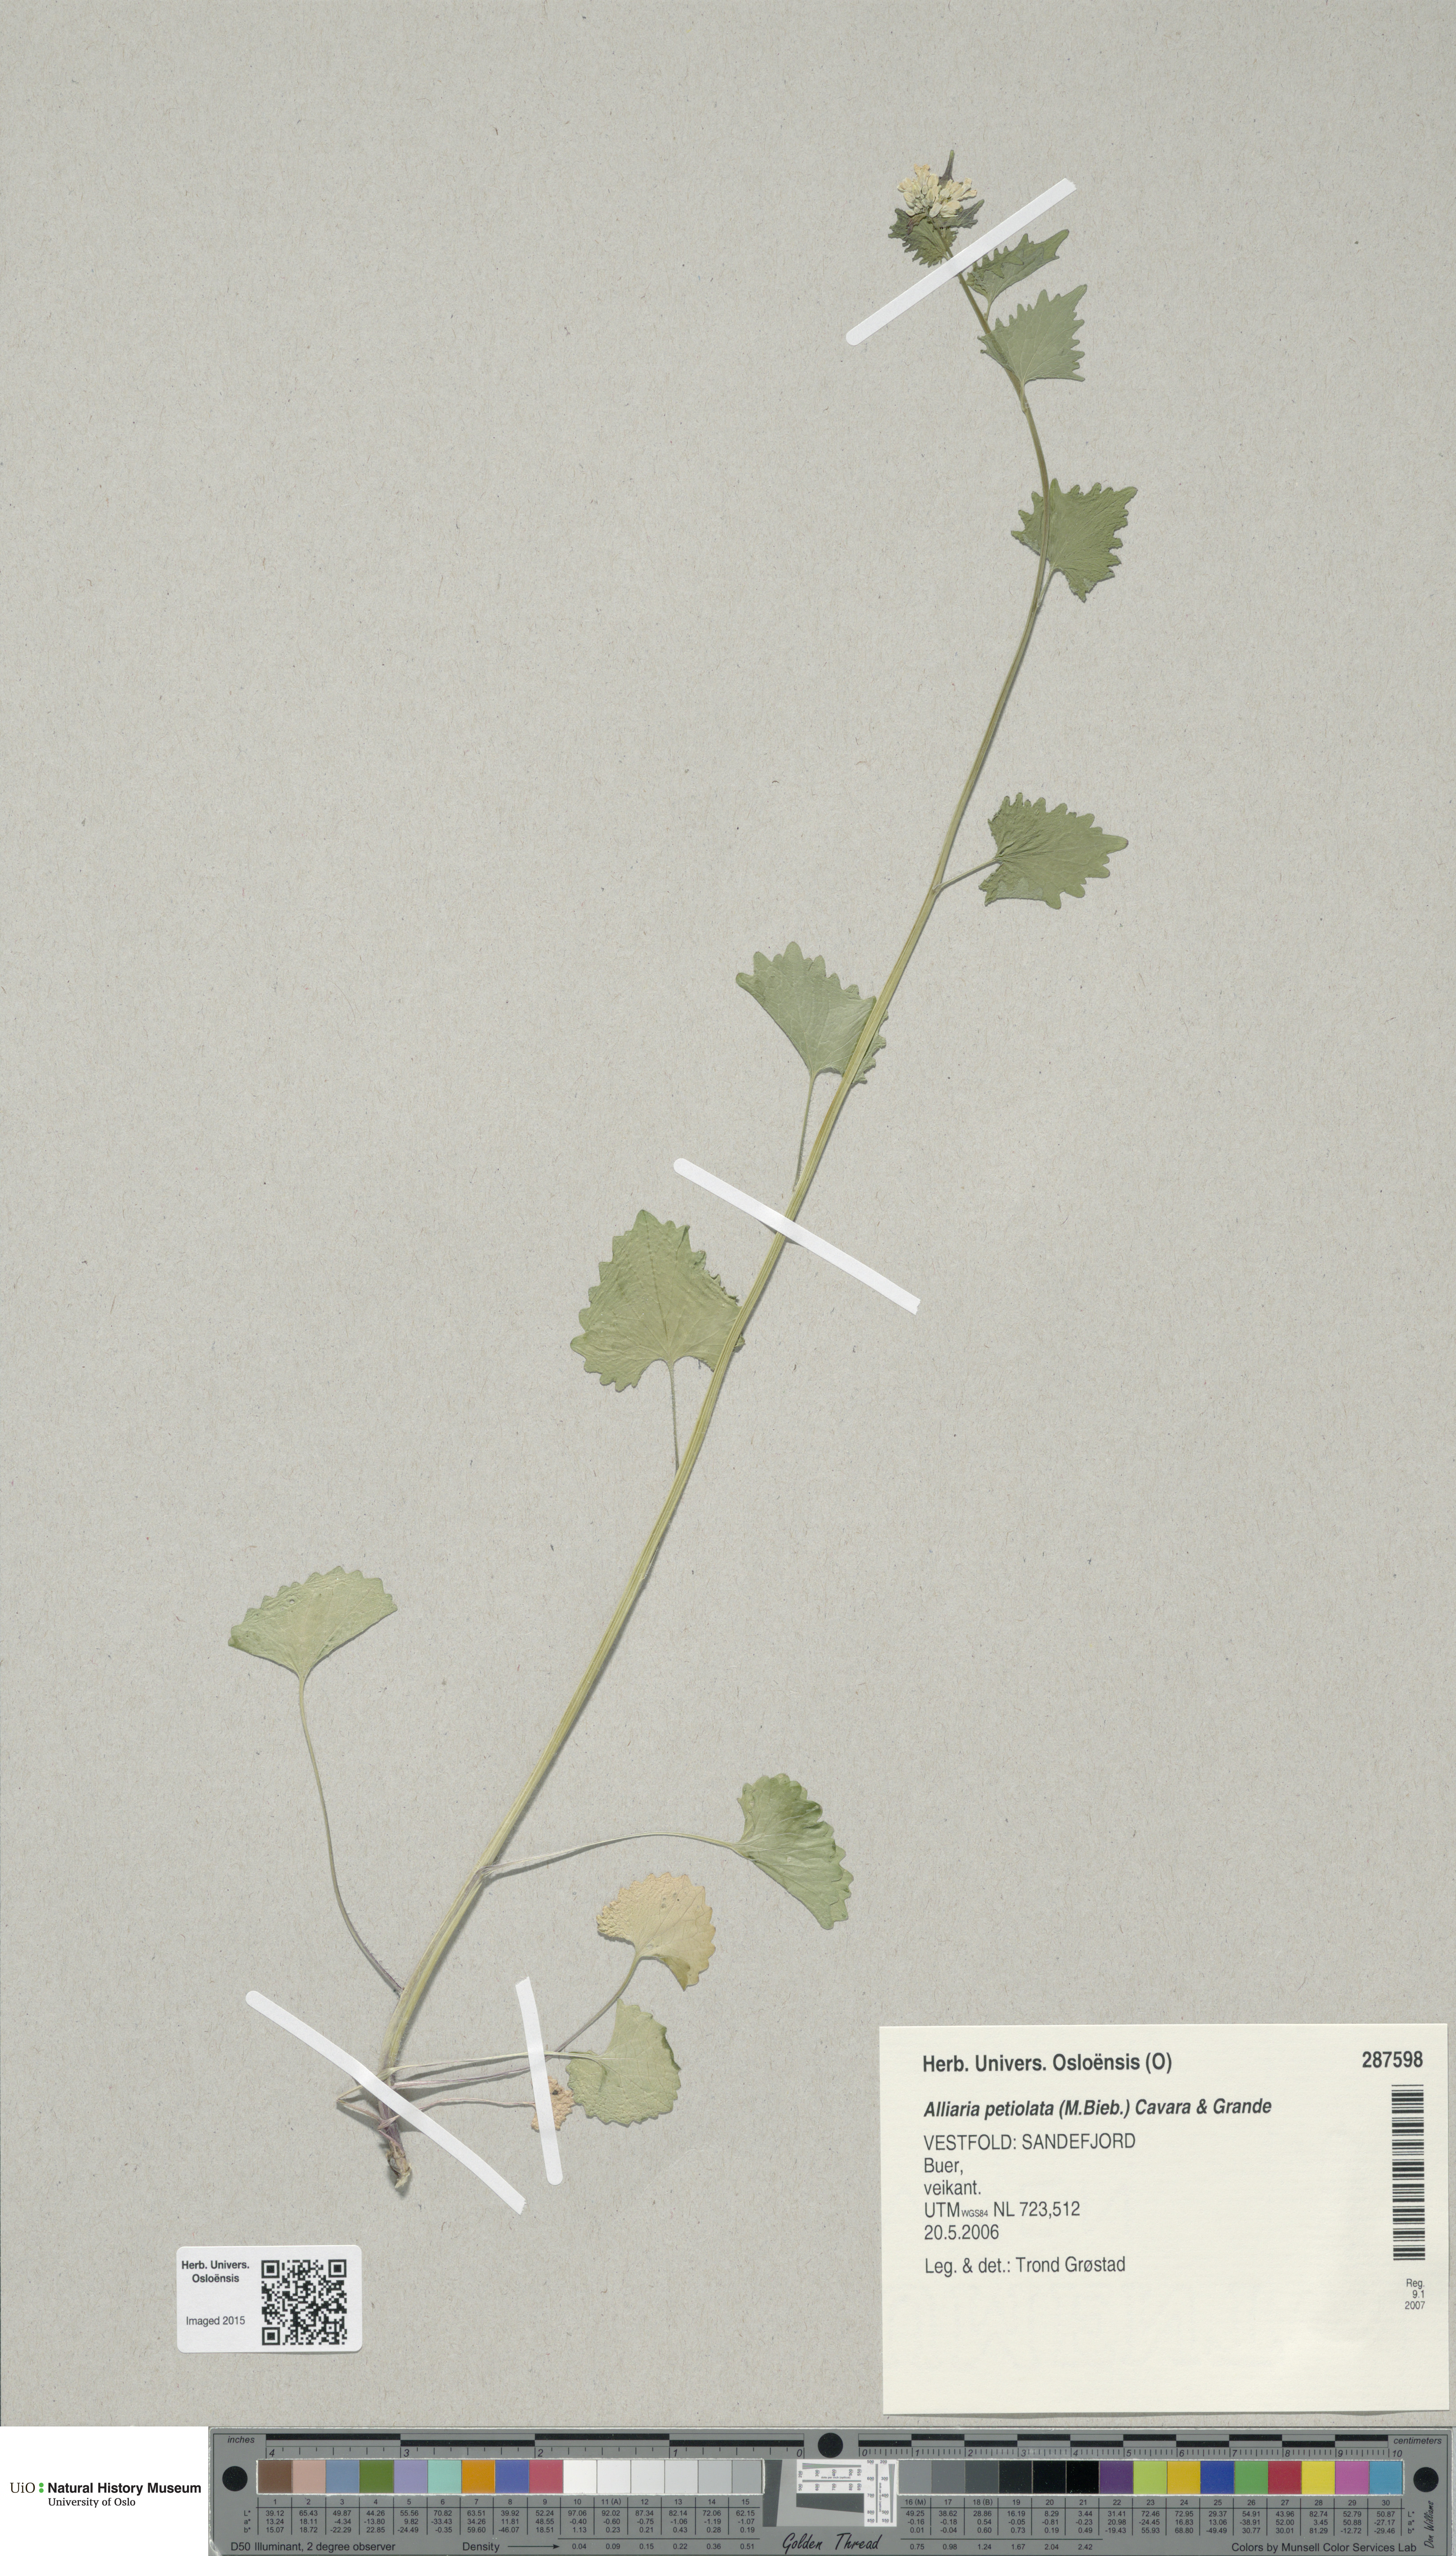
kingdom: Plantae
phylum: Tracheophyta
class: Magnoliopsida
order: Brassicales
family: Brassicaceae
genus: Alliaria
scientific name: Alliaria petiolata
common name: Garlic mustard
